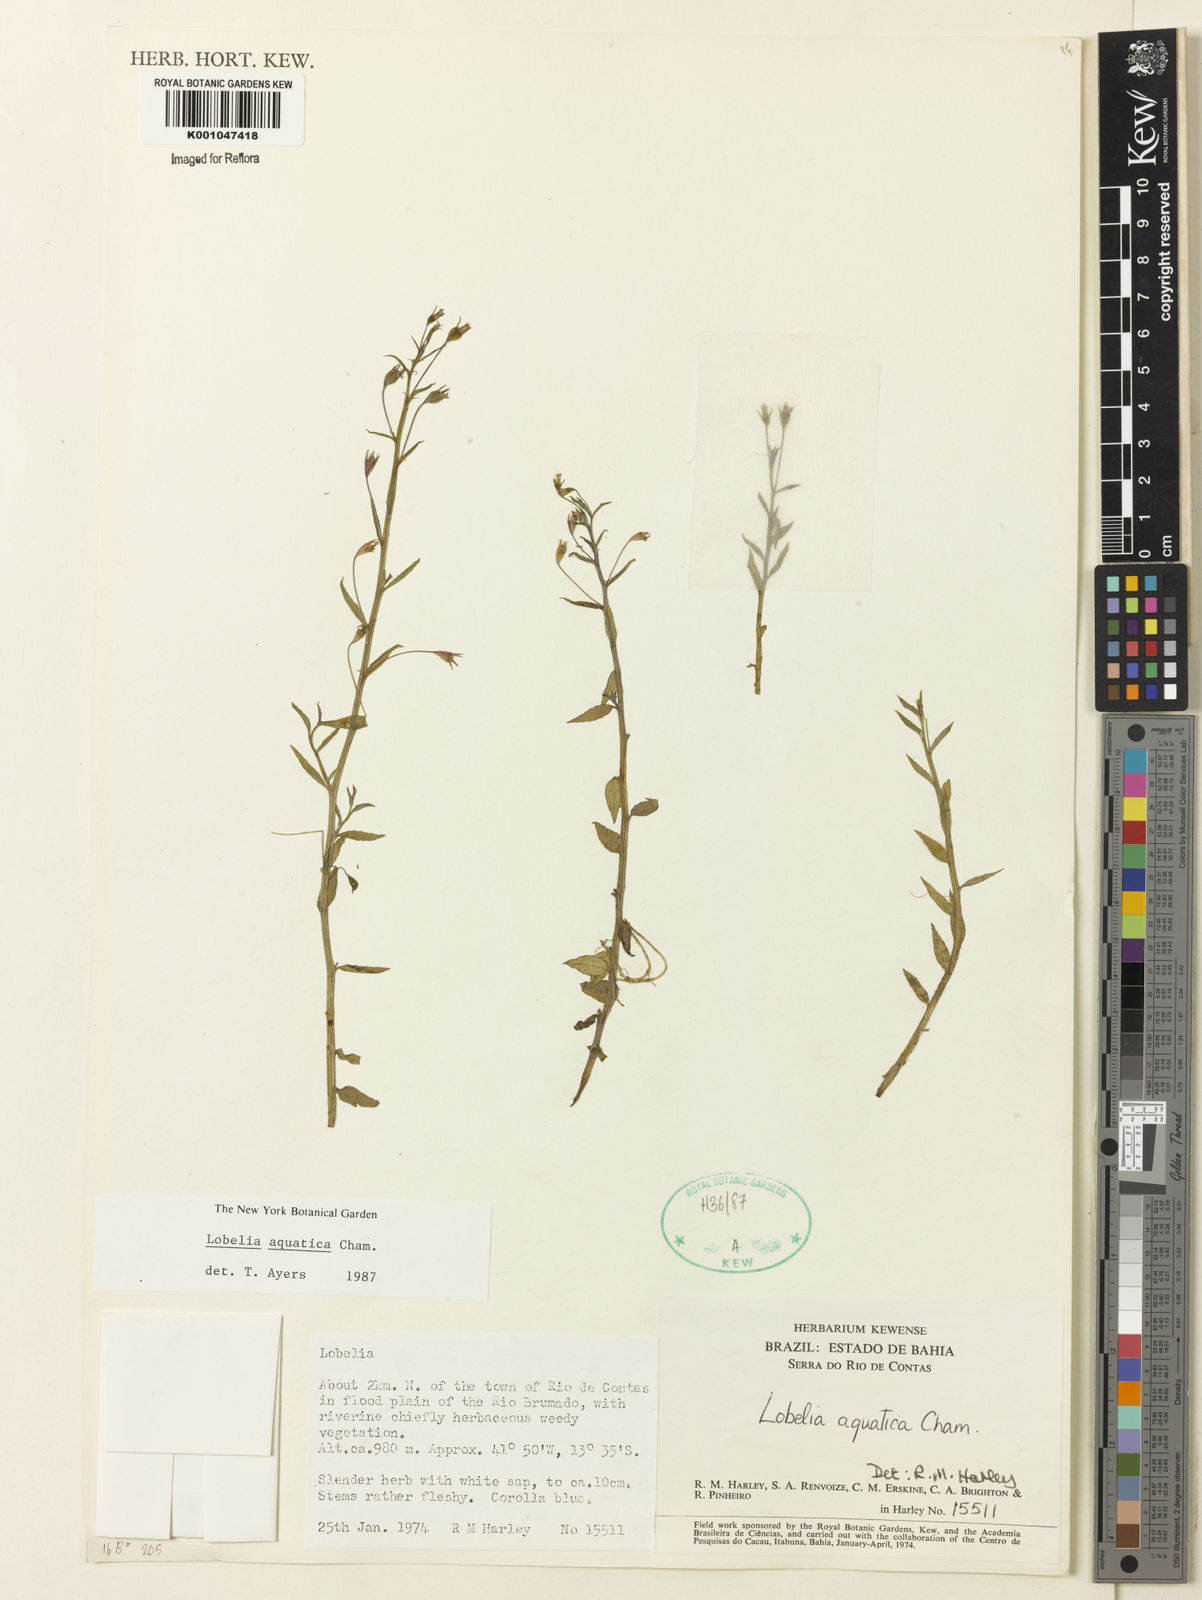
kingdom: Plantae
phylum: Tracheophyta
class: Magnoliopsida
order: Asterales
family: Campanulaceae
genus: Lobelia
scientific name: Lobelia aquatica
